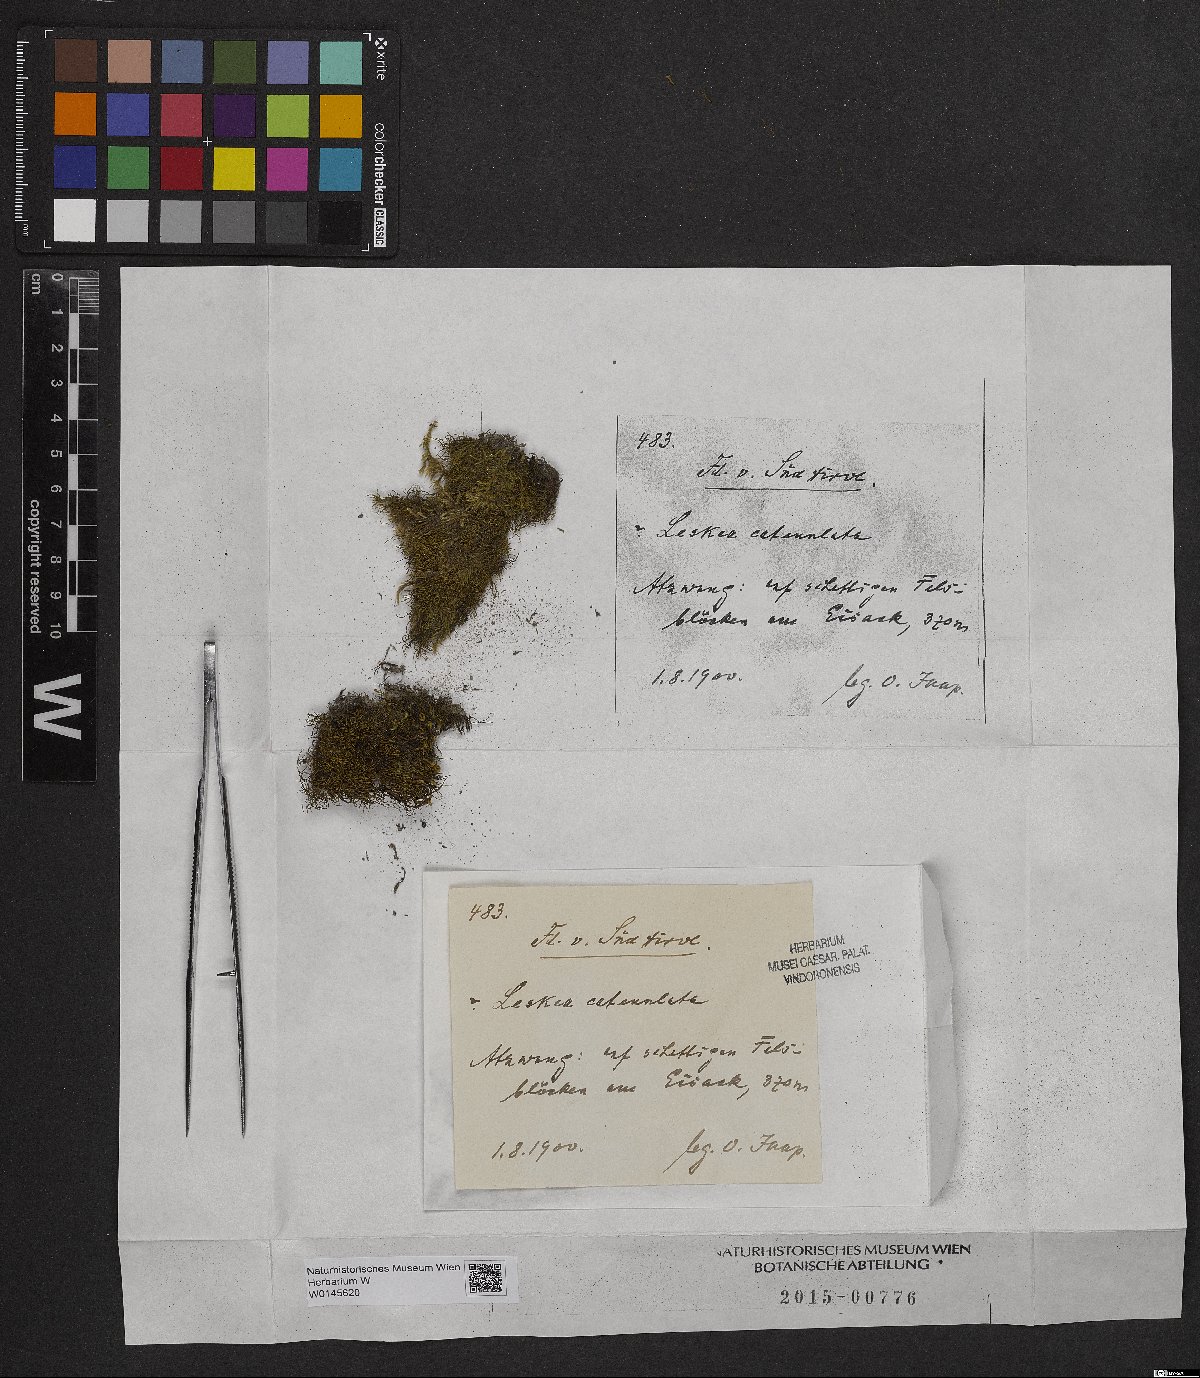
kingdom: Plantae
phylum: Bryophyta
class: Bryopsida
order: Hypnales
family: Pseudoleskeellaceae
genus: Pseudoleskeella
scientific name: Pseudoleskeella catenulata
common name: Chained leskea
